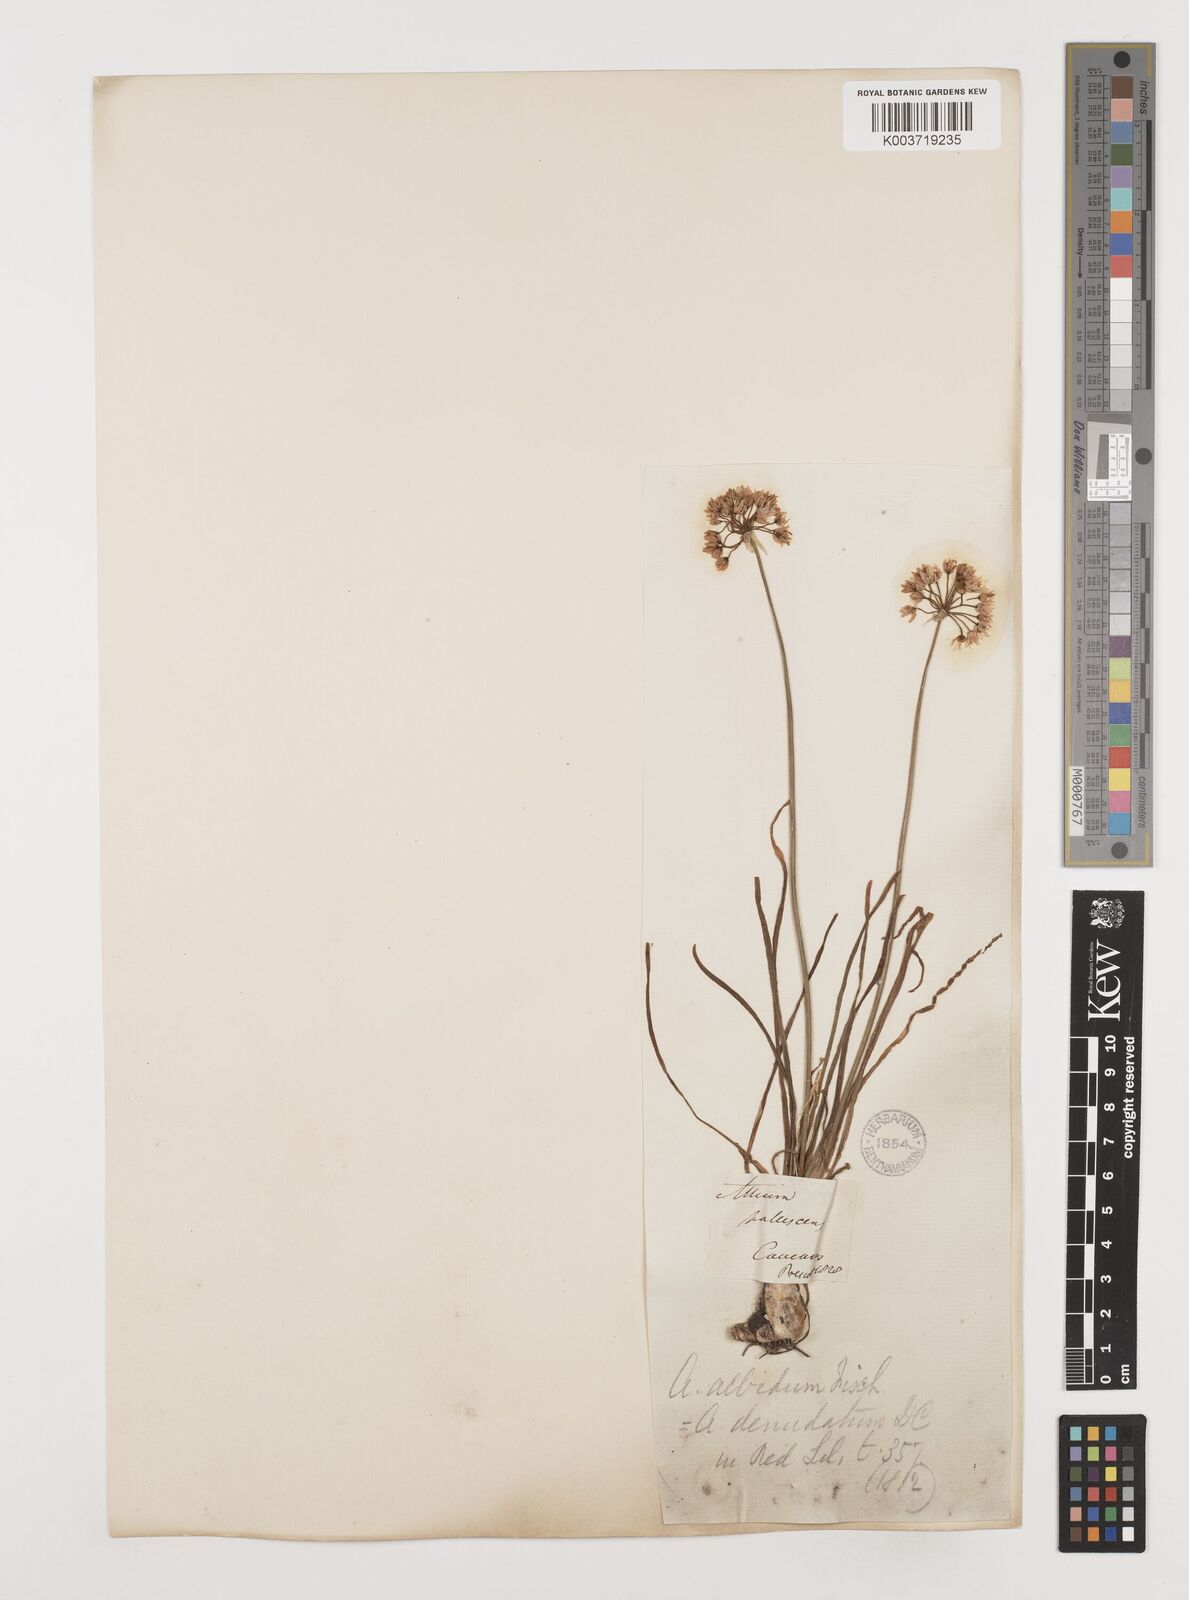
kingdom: Plantae
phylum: Tracheophyta
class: Liliopsida
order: Asparagales
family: Amaryllidaceae
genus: Allium
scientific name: Allium denudatum
